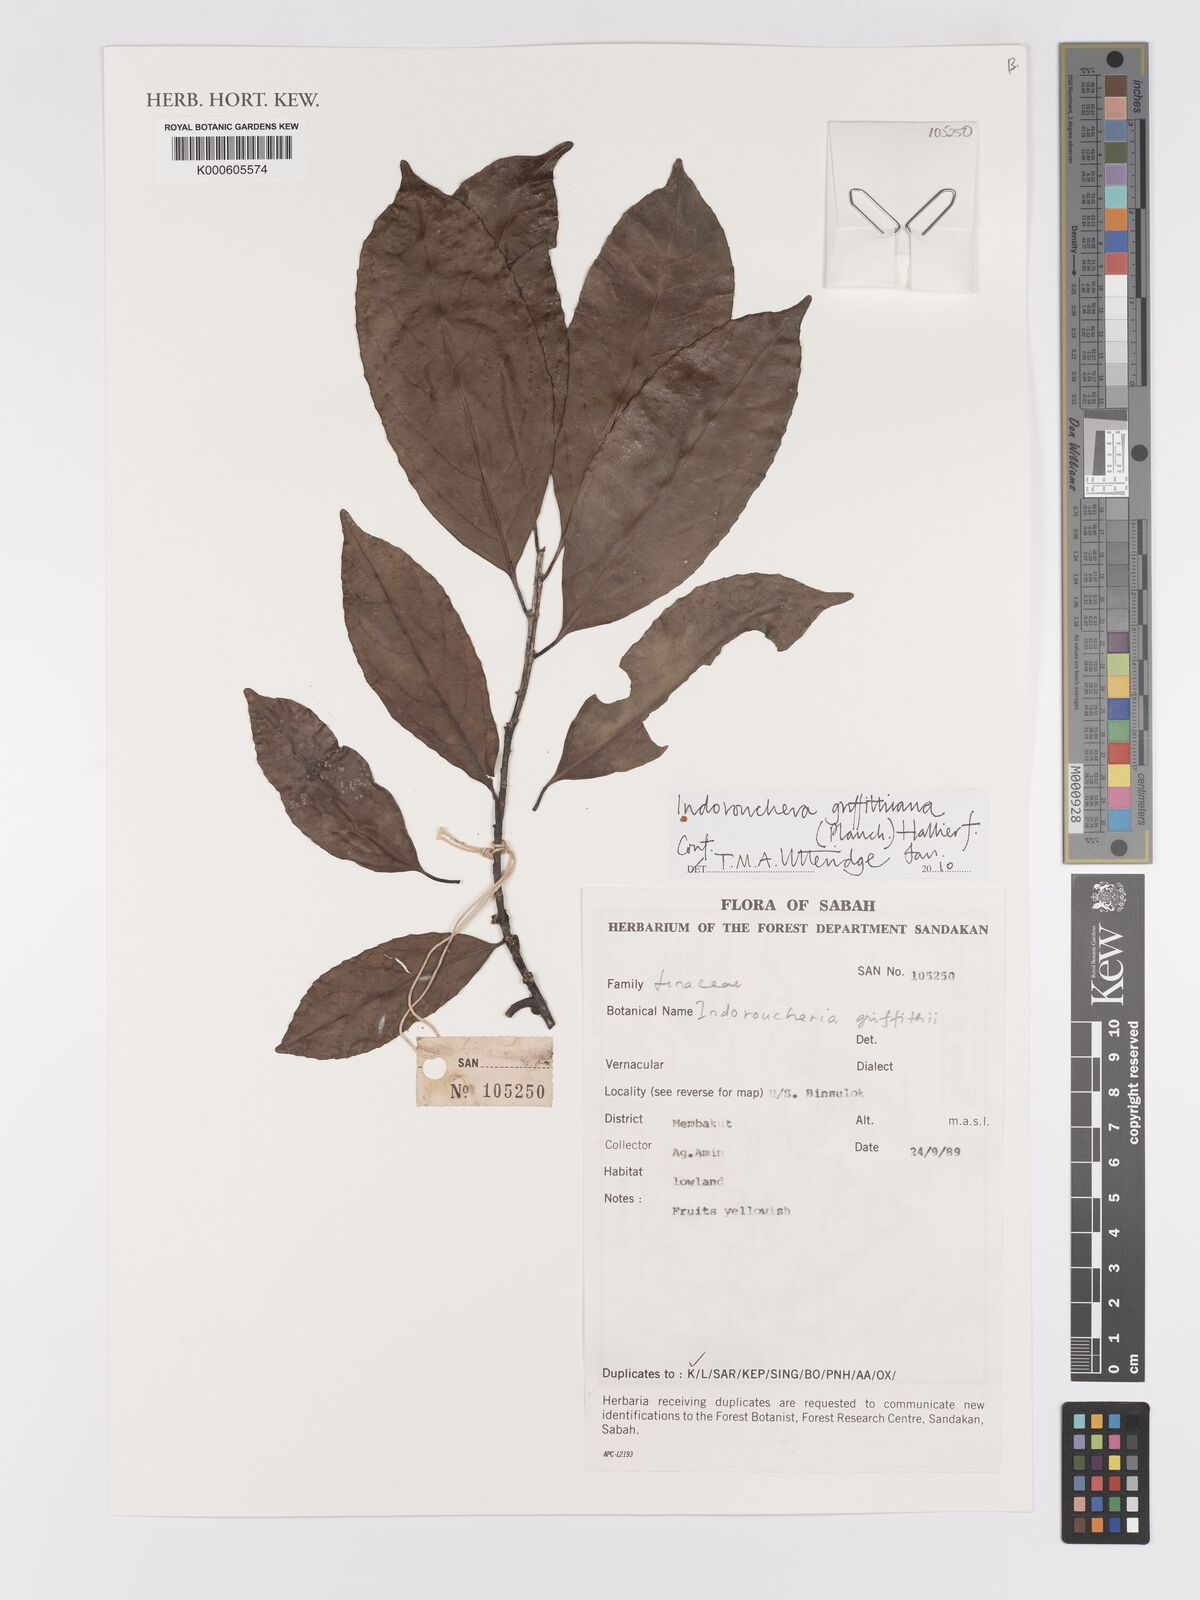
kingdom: Plantae
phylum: Tracheophyta
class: Magnoliopsida
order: Malpighiales
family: Linaceae
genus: Indorouchera
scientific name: Indorouchera griffithiana
